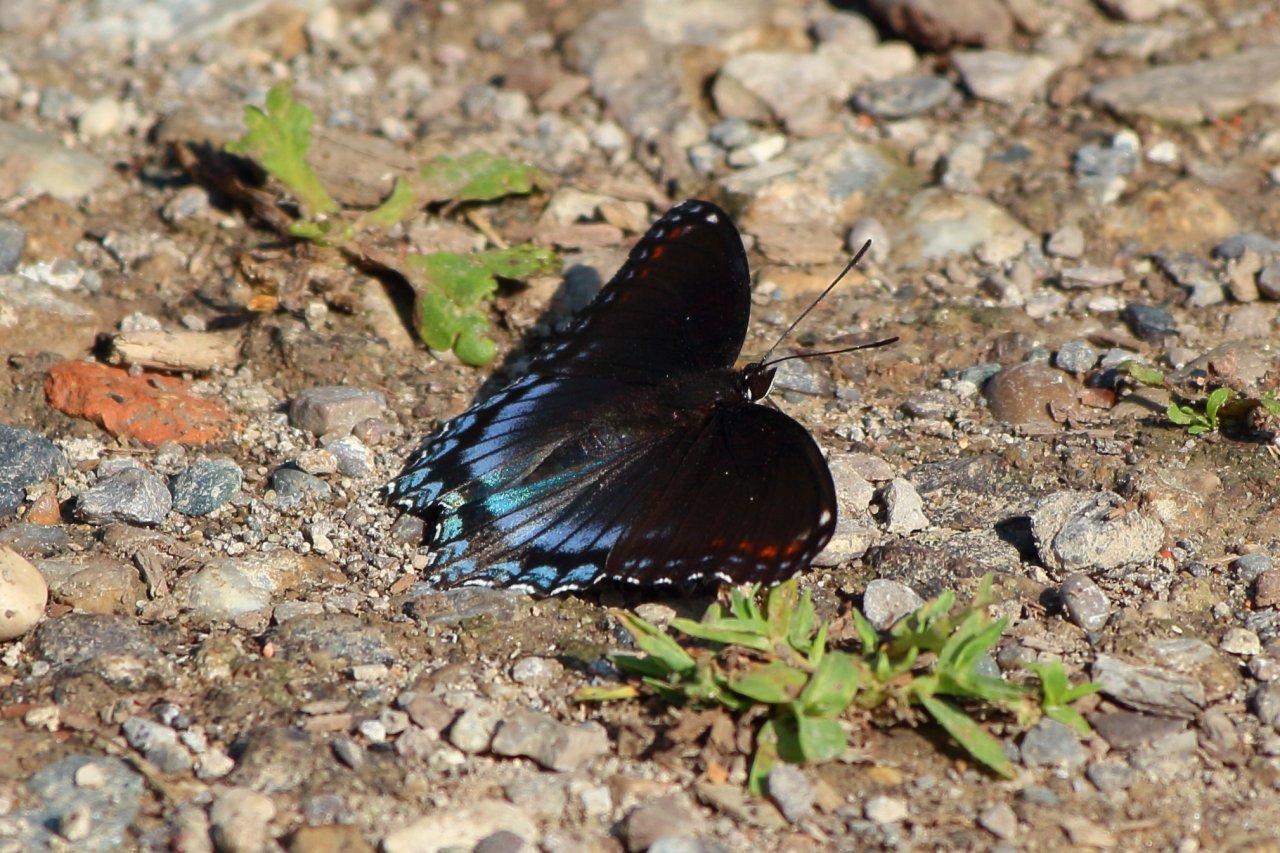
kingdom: Animalia
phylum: Arthropoda
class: Insecta
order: Lepidoptera
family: Nymphalidae
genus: Limenitis
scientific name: Limenitis astyanax
